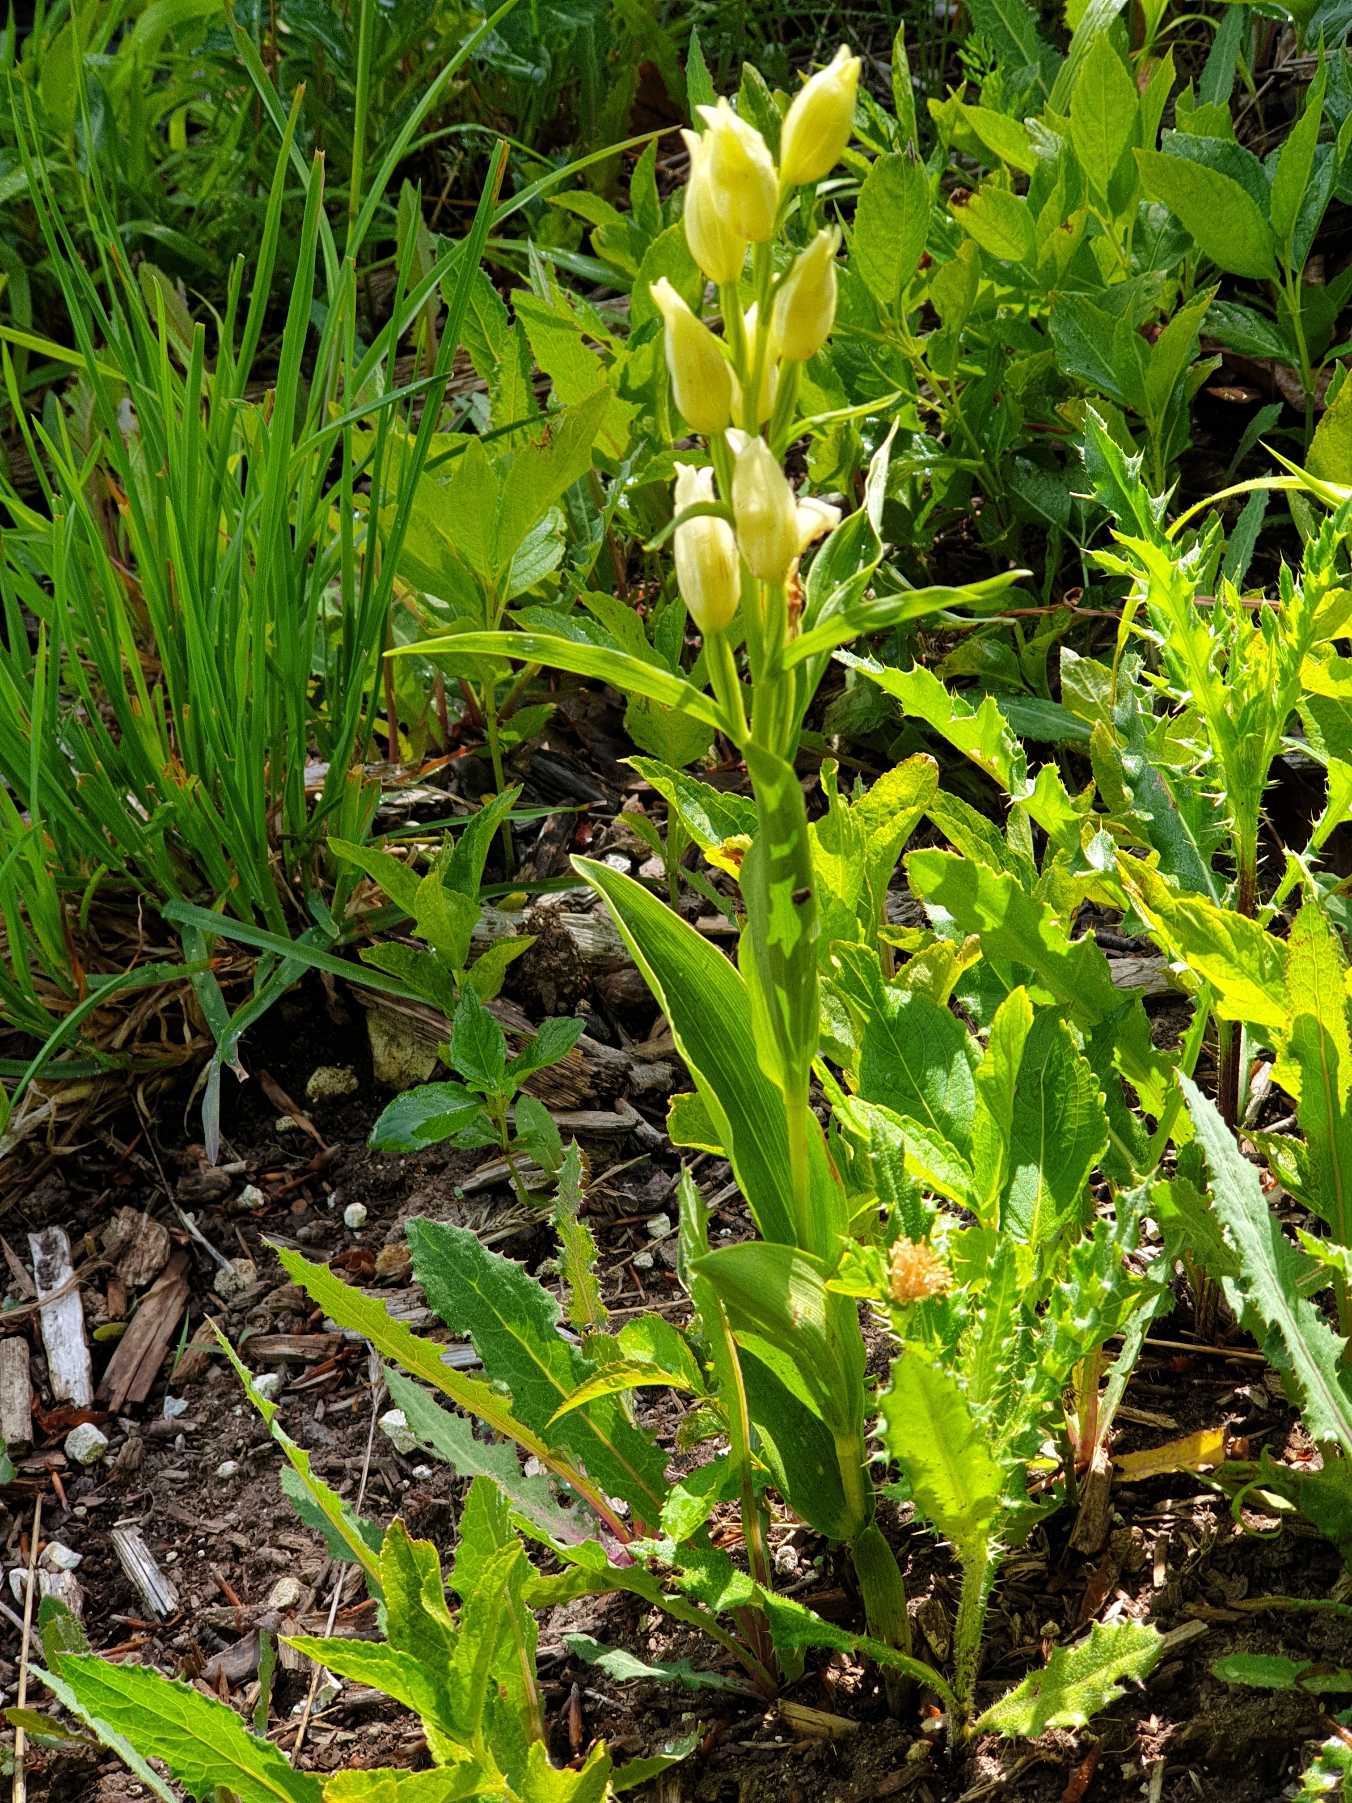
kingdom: Plantae
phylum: Tracheophyta
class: Liliopsida
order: Asparagales
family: Orchidaceae
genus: Cephalanthera
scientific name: Cephalanthera damasonium
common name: Hvidgul skovlilje
